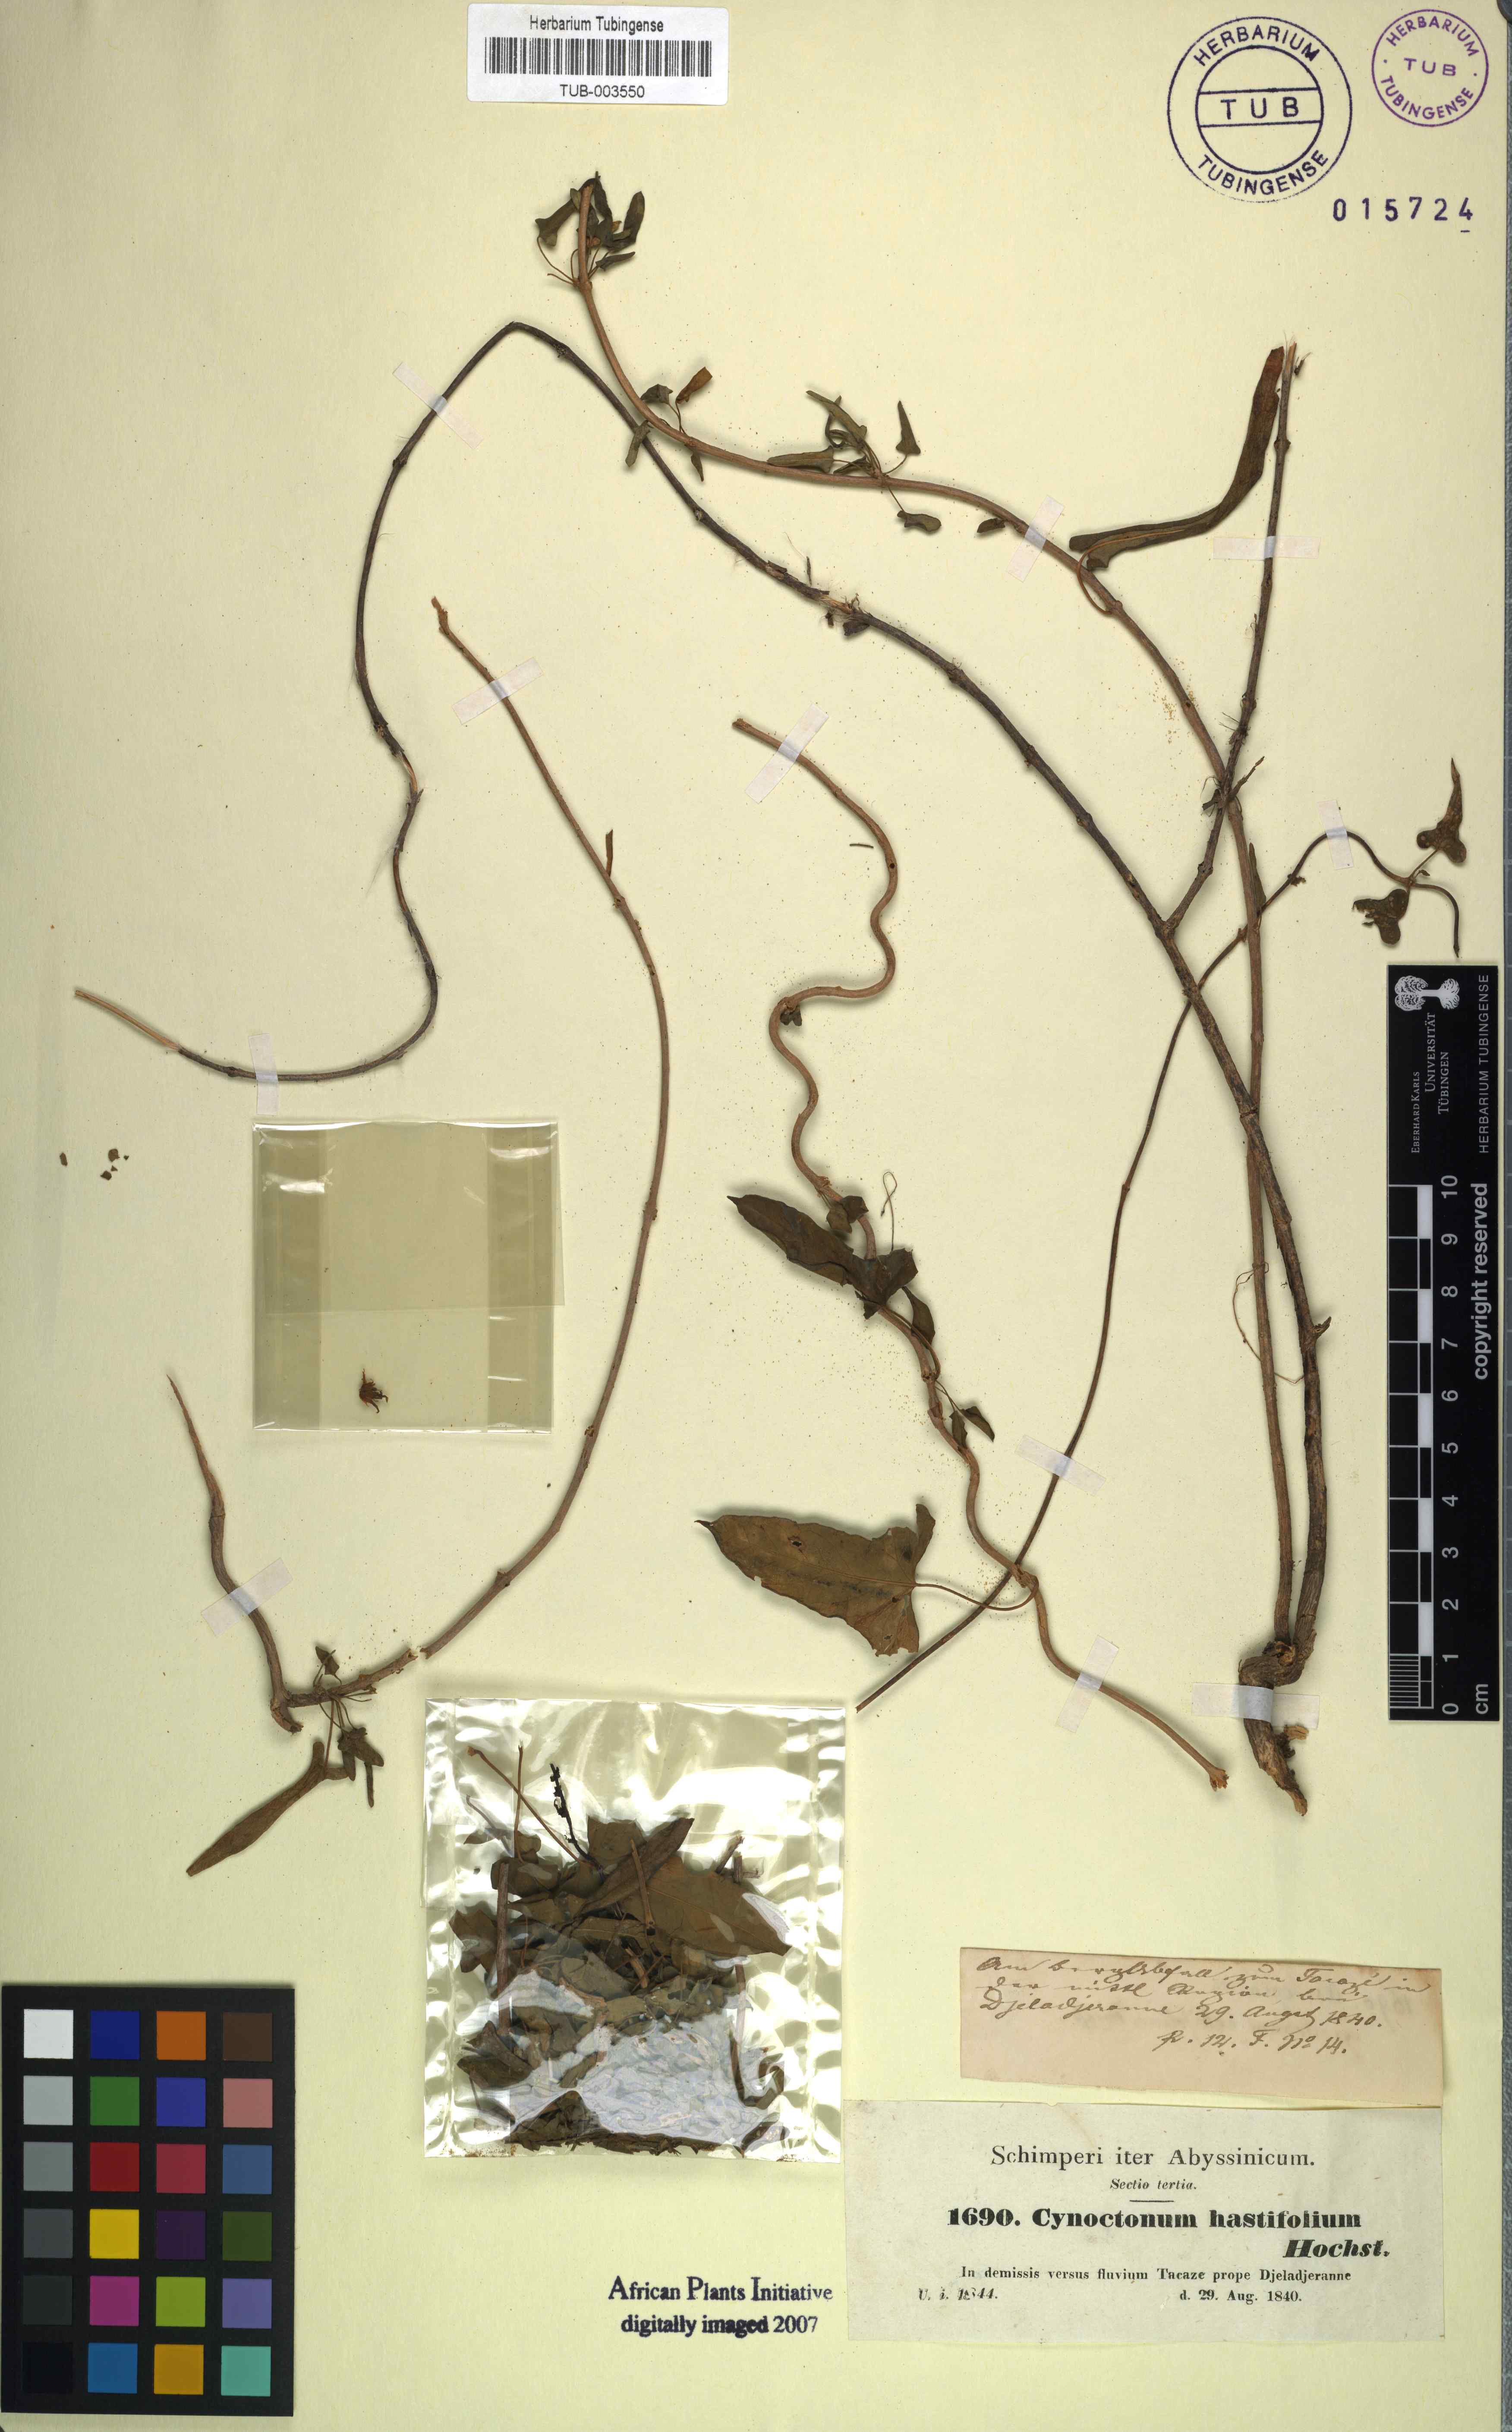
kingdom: Plantae
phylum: Tracheophyta
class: Magnoliopsida
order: Gentianales
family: Apocynaceae
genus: Cynanchum
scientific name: Cynanchum hastifolium
